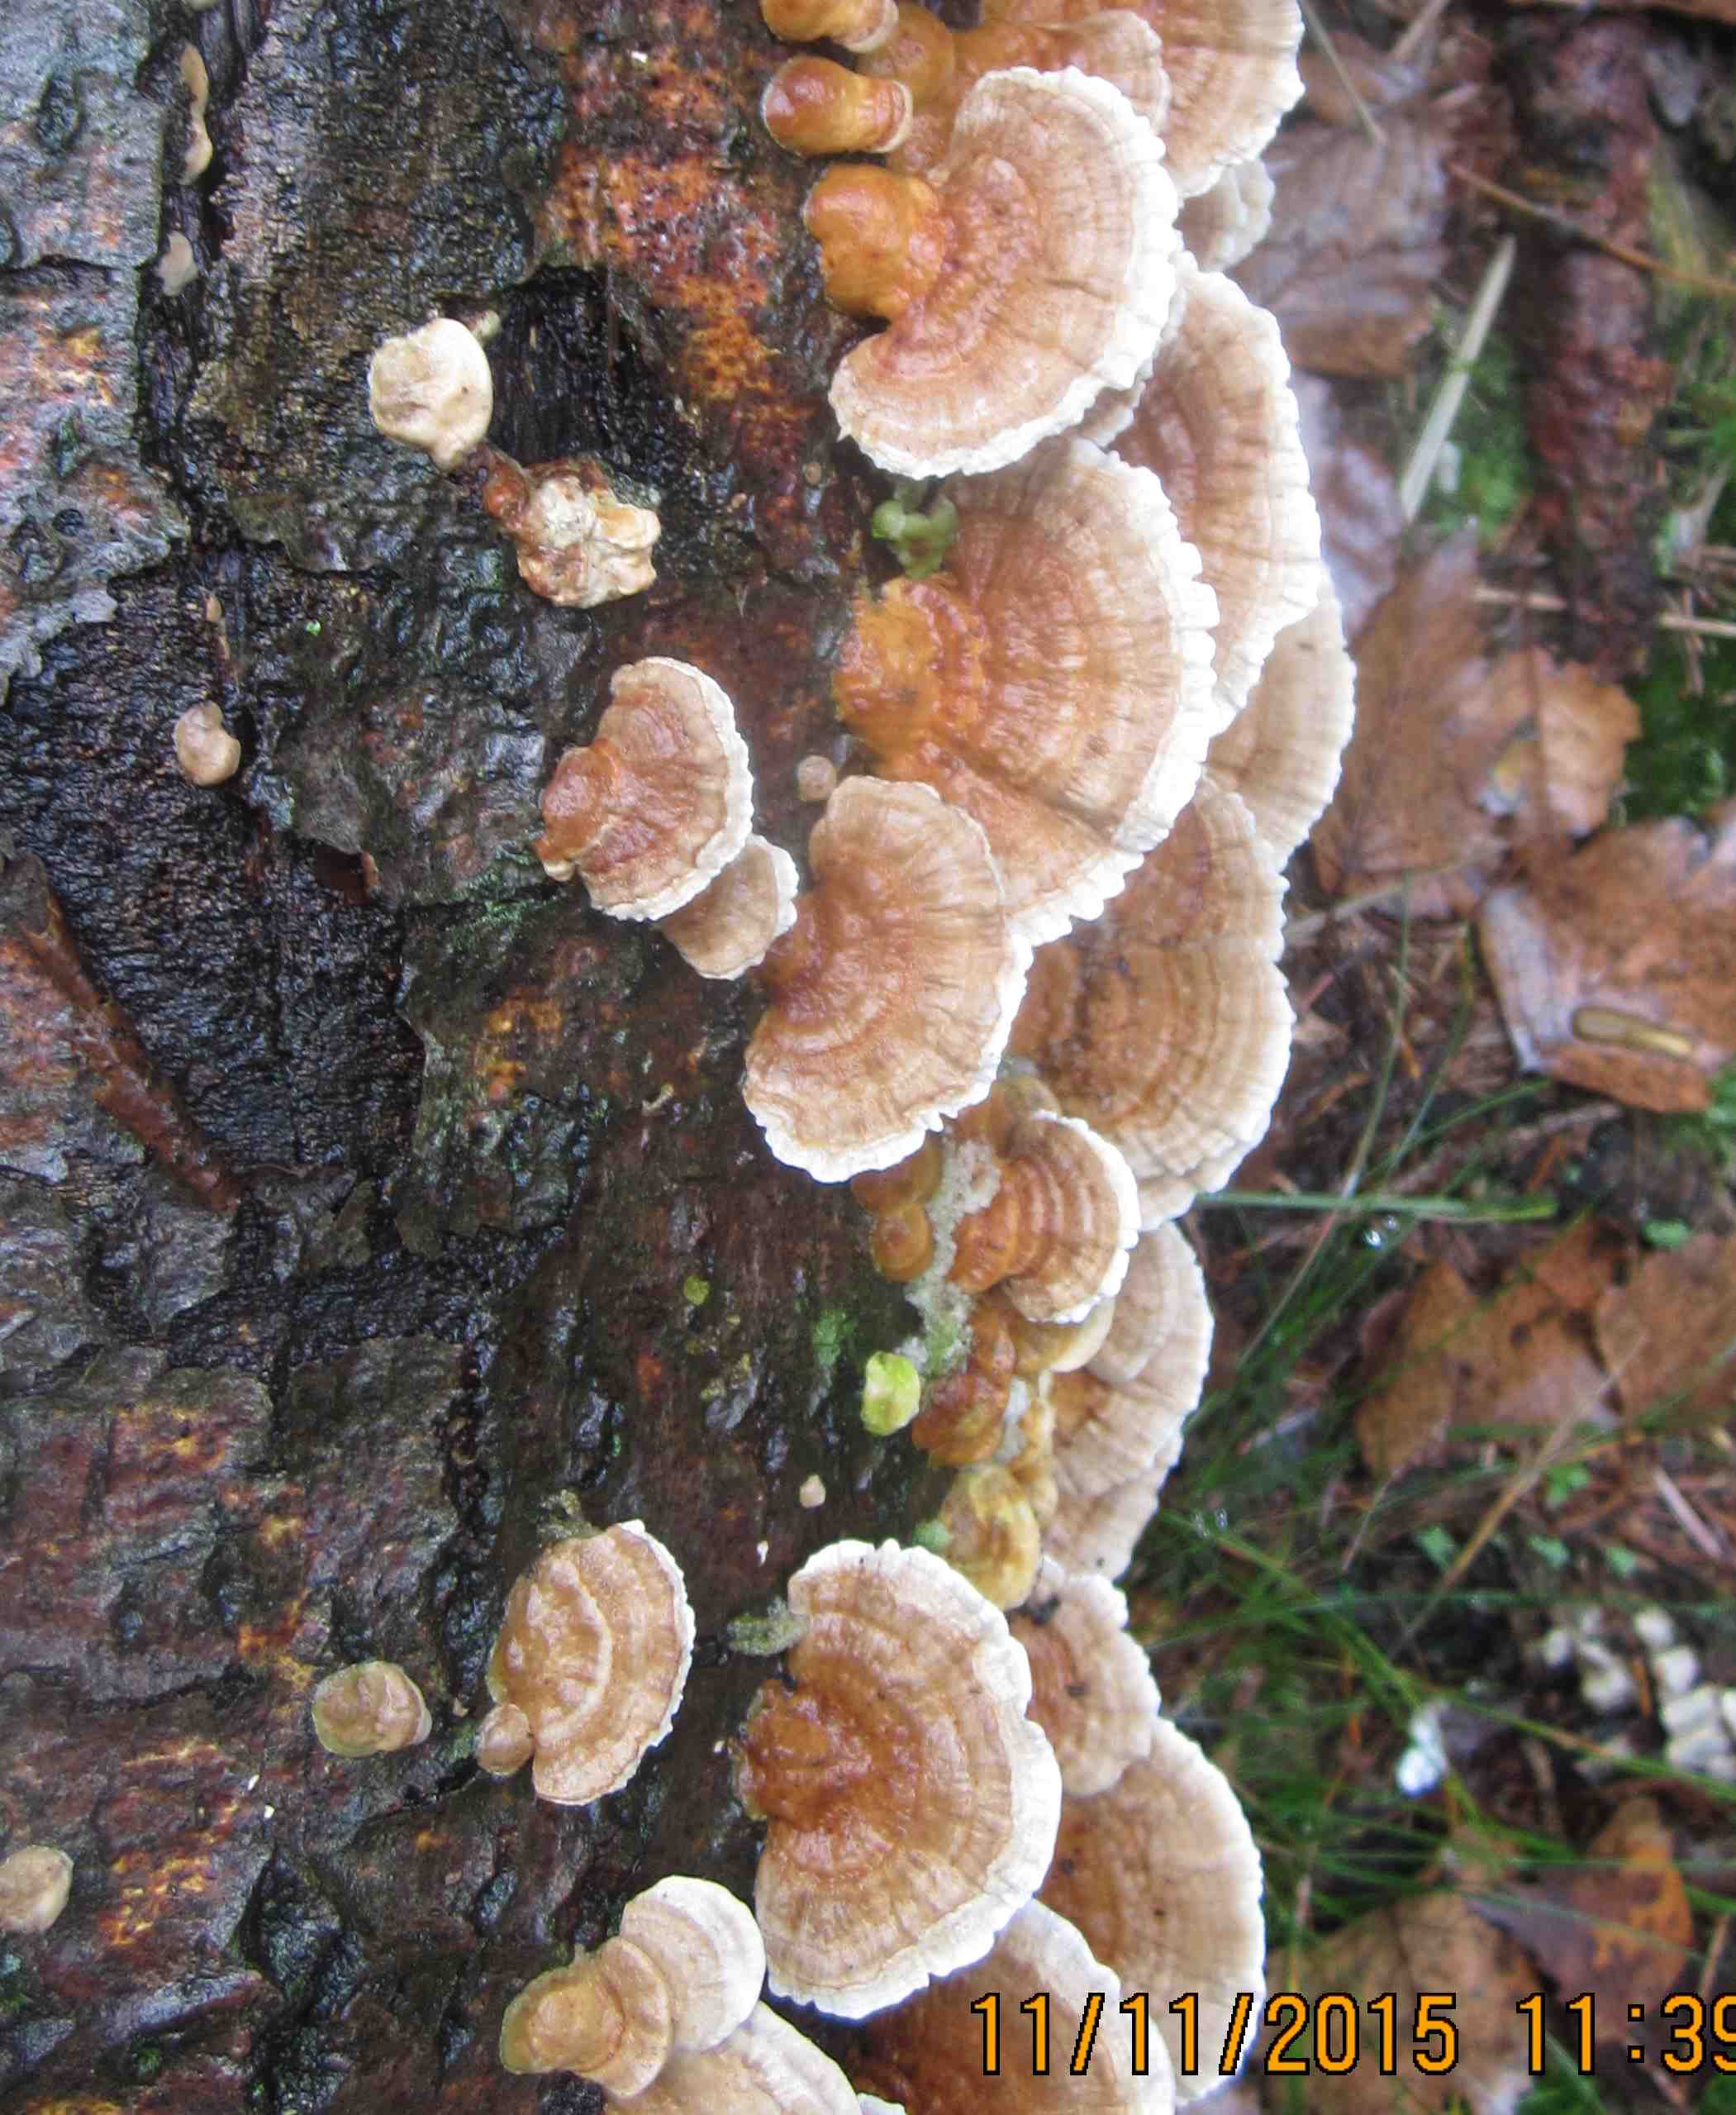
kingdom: Fungi
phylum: Basidiomycota
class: Agaricomycetes
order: Polyporales
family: Polyporaceae
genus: Trametes
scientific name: Trametes ochracea
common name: bæltet læderporesvamp
